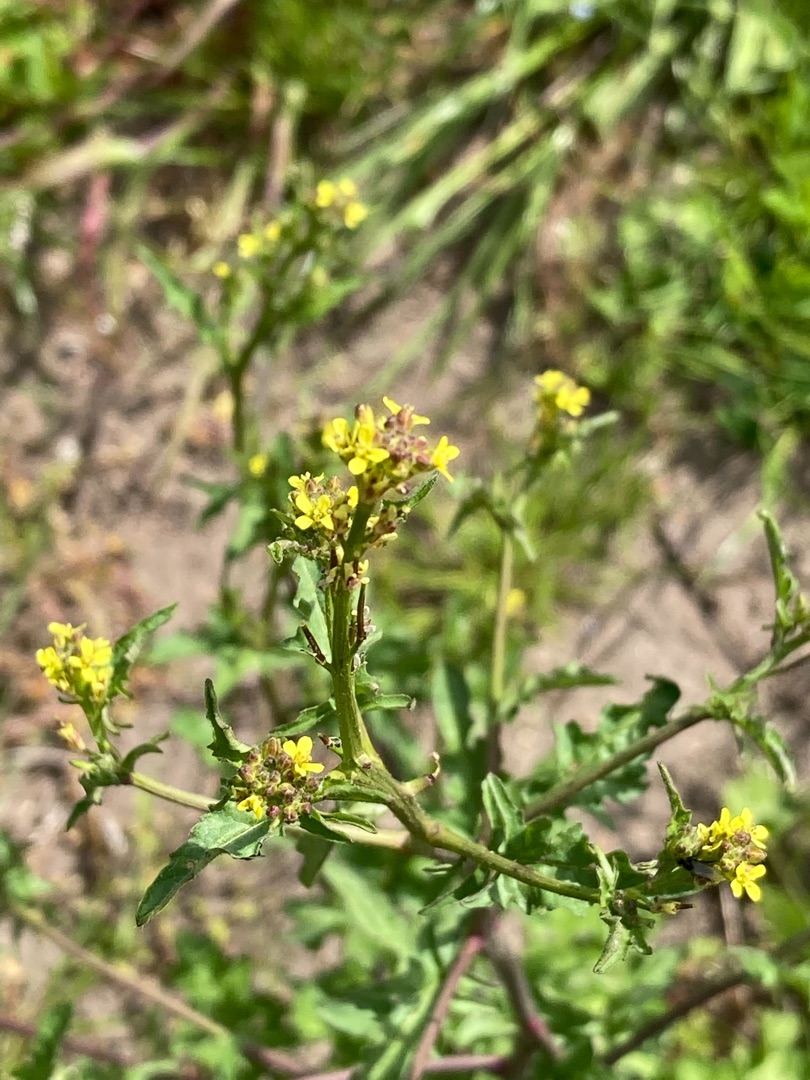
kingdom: Plantae
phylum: Tracheophyta
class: Magnoliopsida
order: Brassicales
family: Brassicaceae
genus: Sisymbrium
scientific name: Sisymbrium officinale
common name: Rank vejsennep
